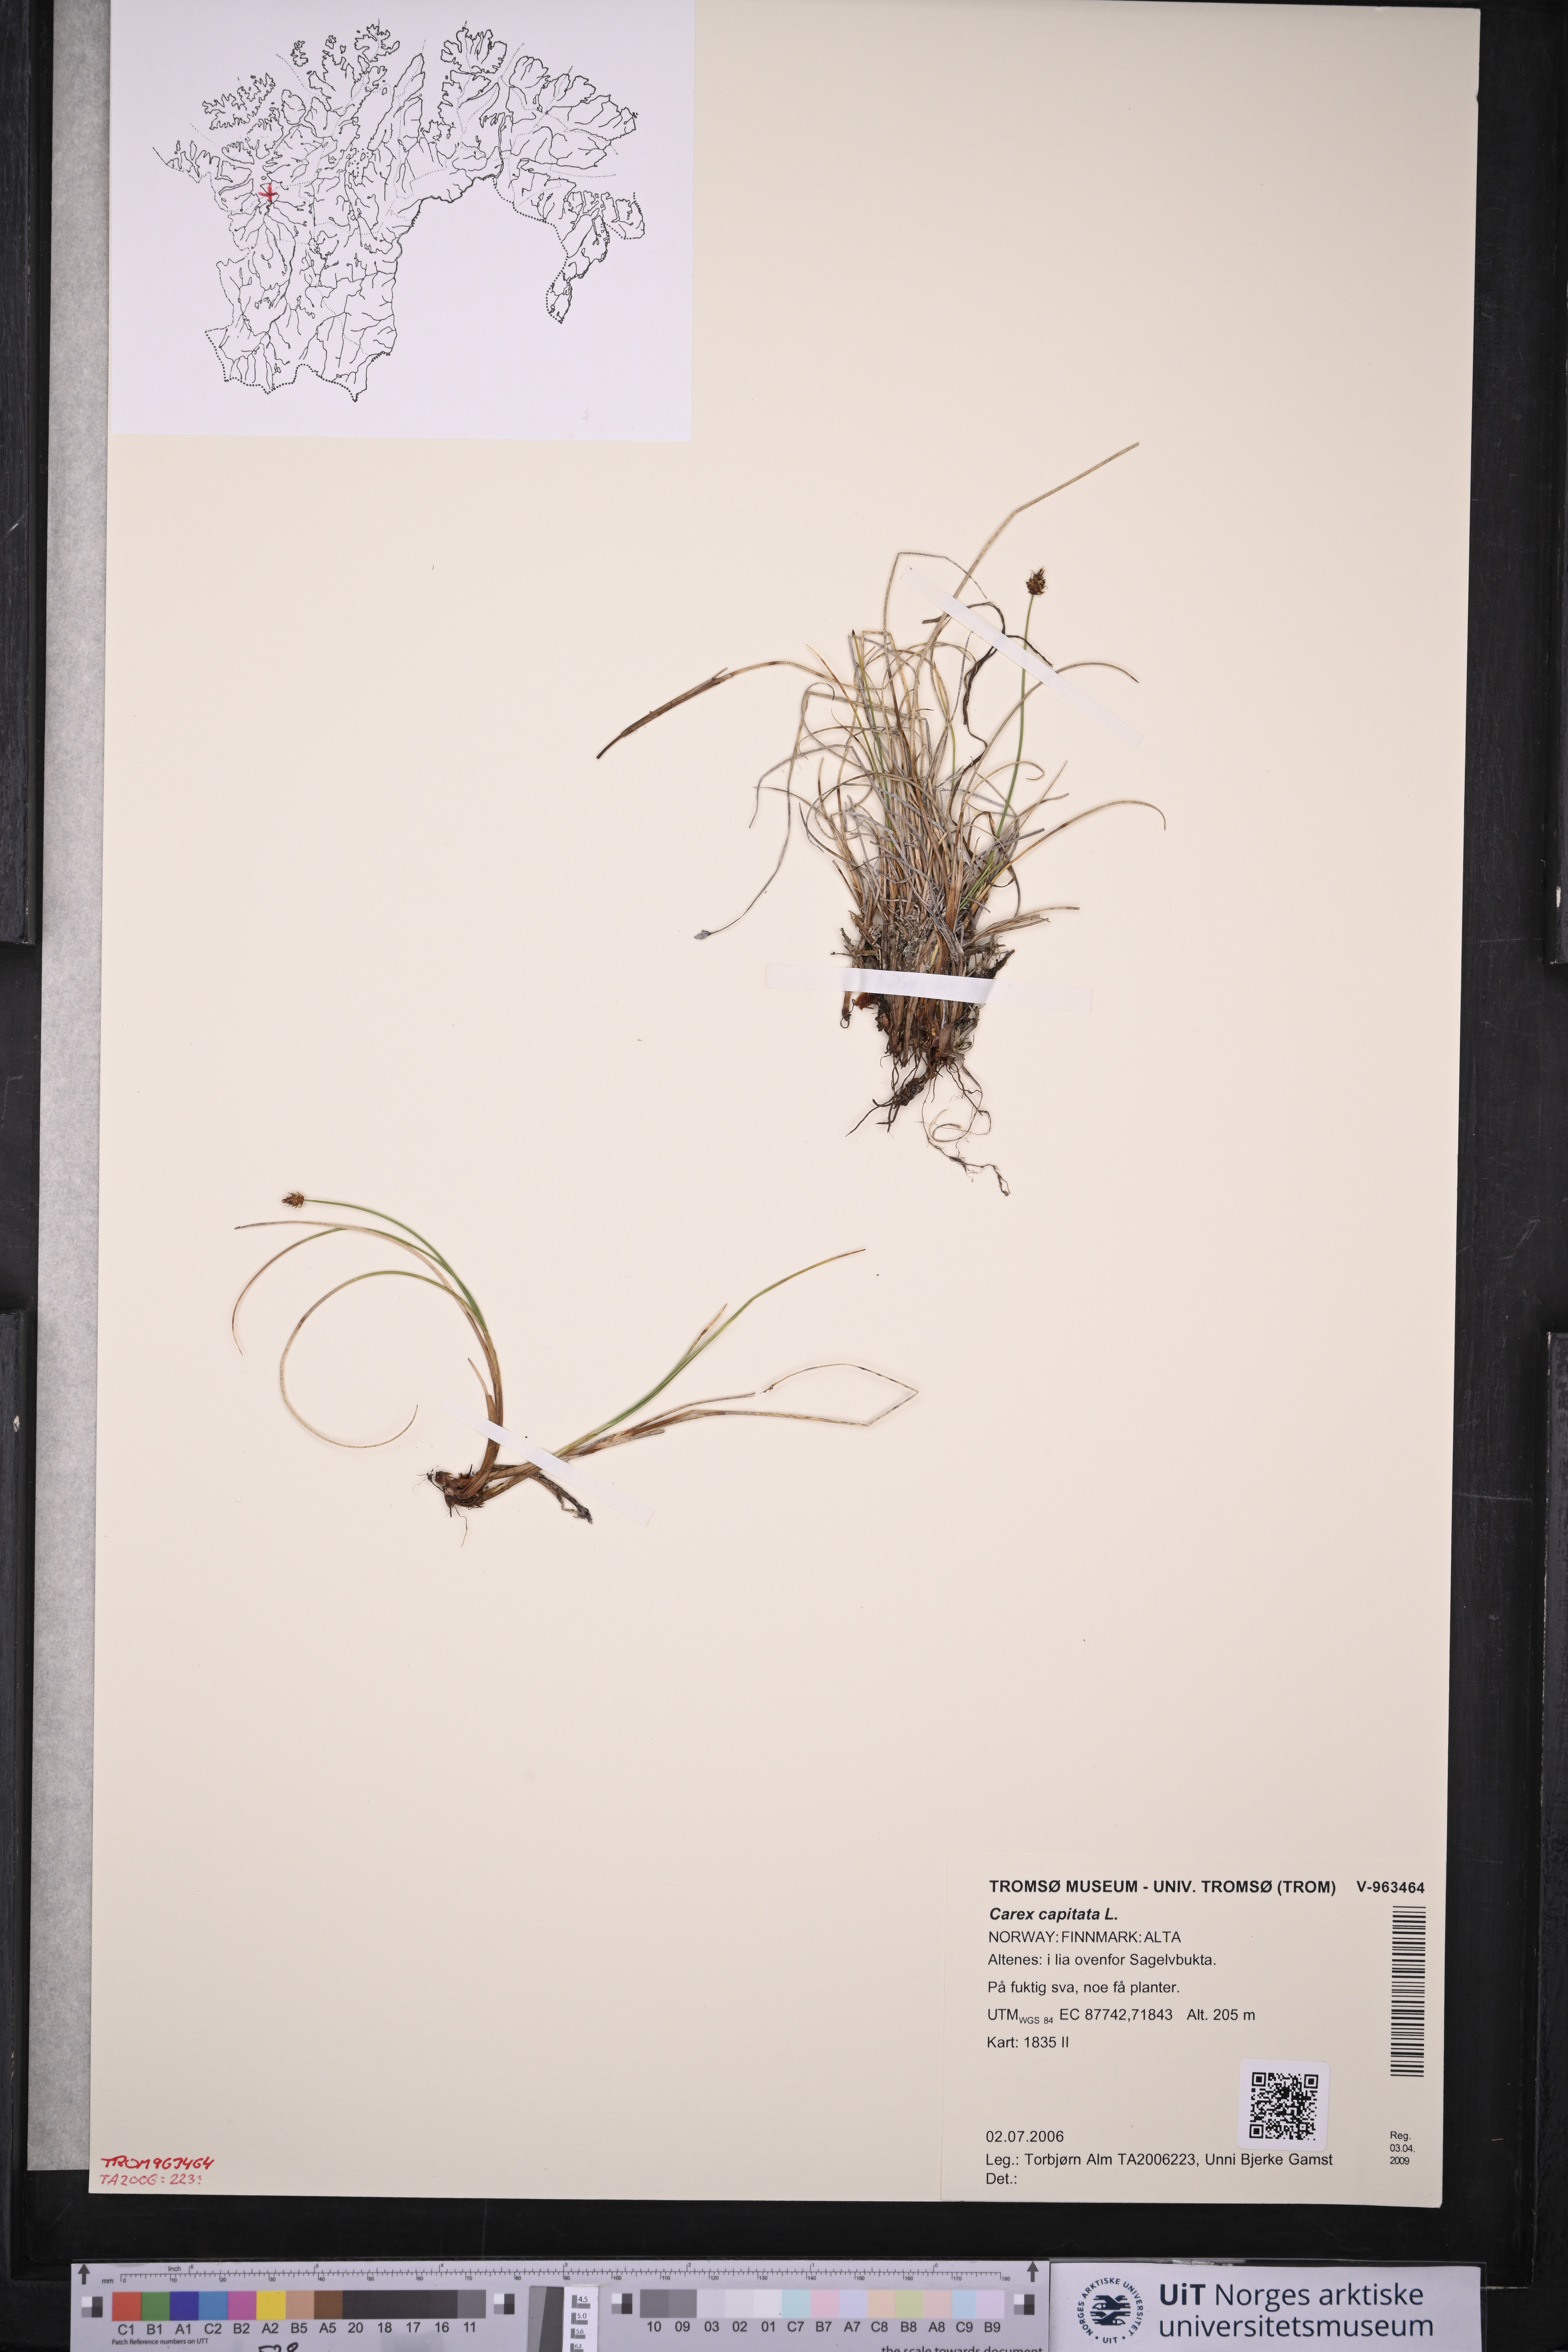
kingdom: Plantae
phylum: Tracheophyta
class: Liliopsida
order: Poales
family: Cyperaceae
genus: Carex
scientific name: Carex capitata
